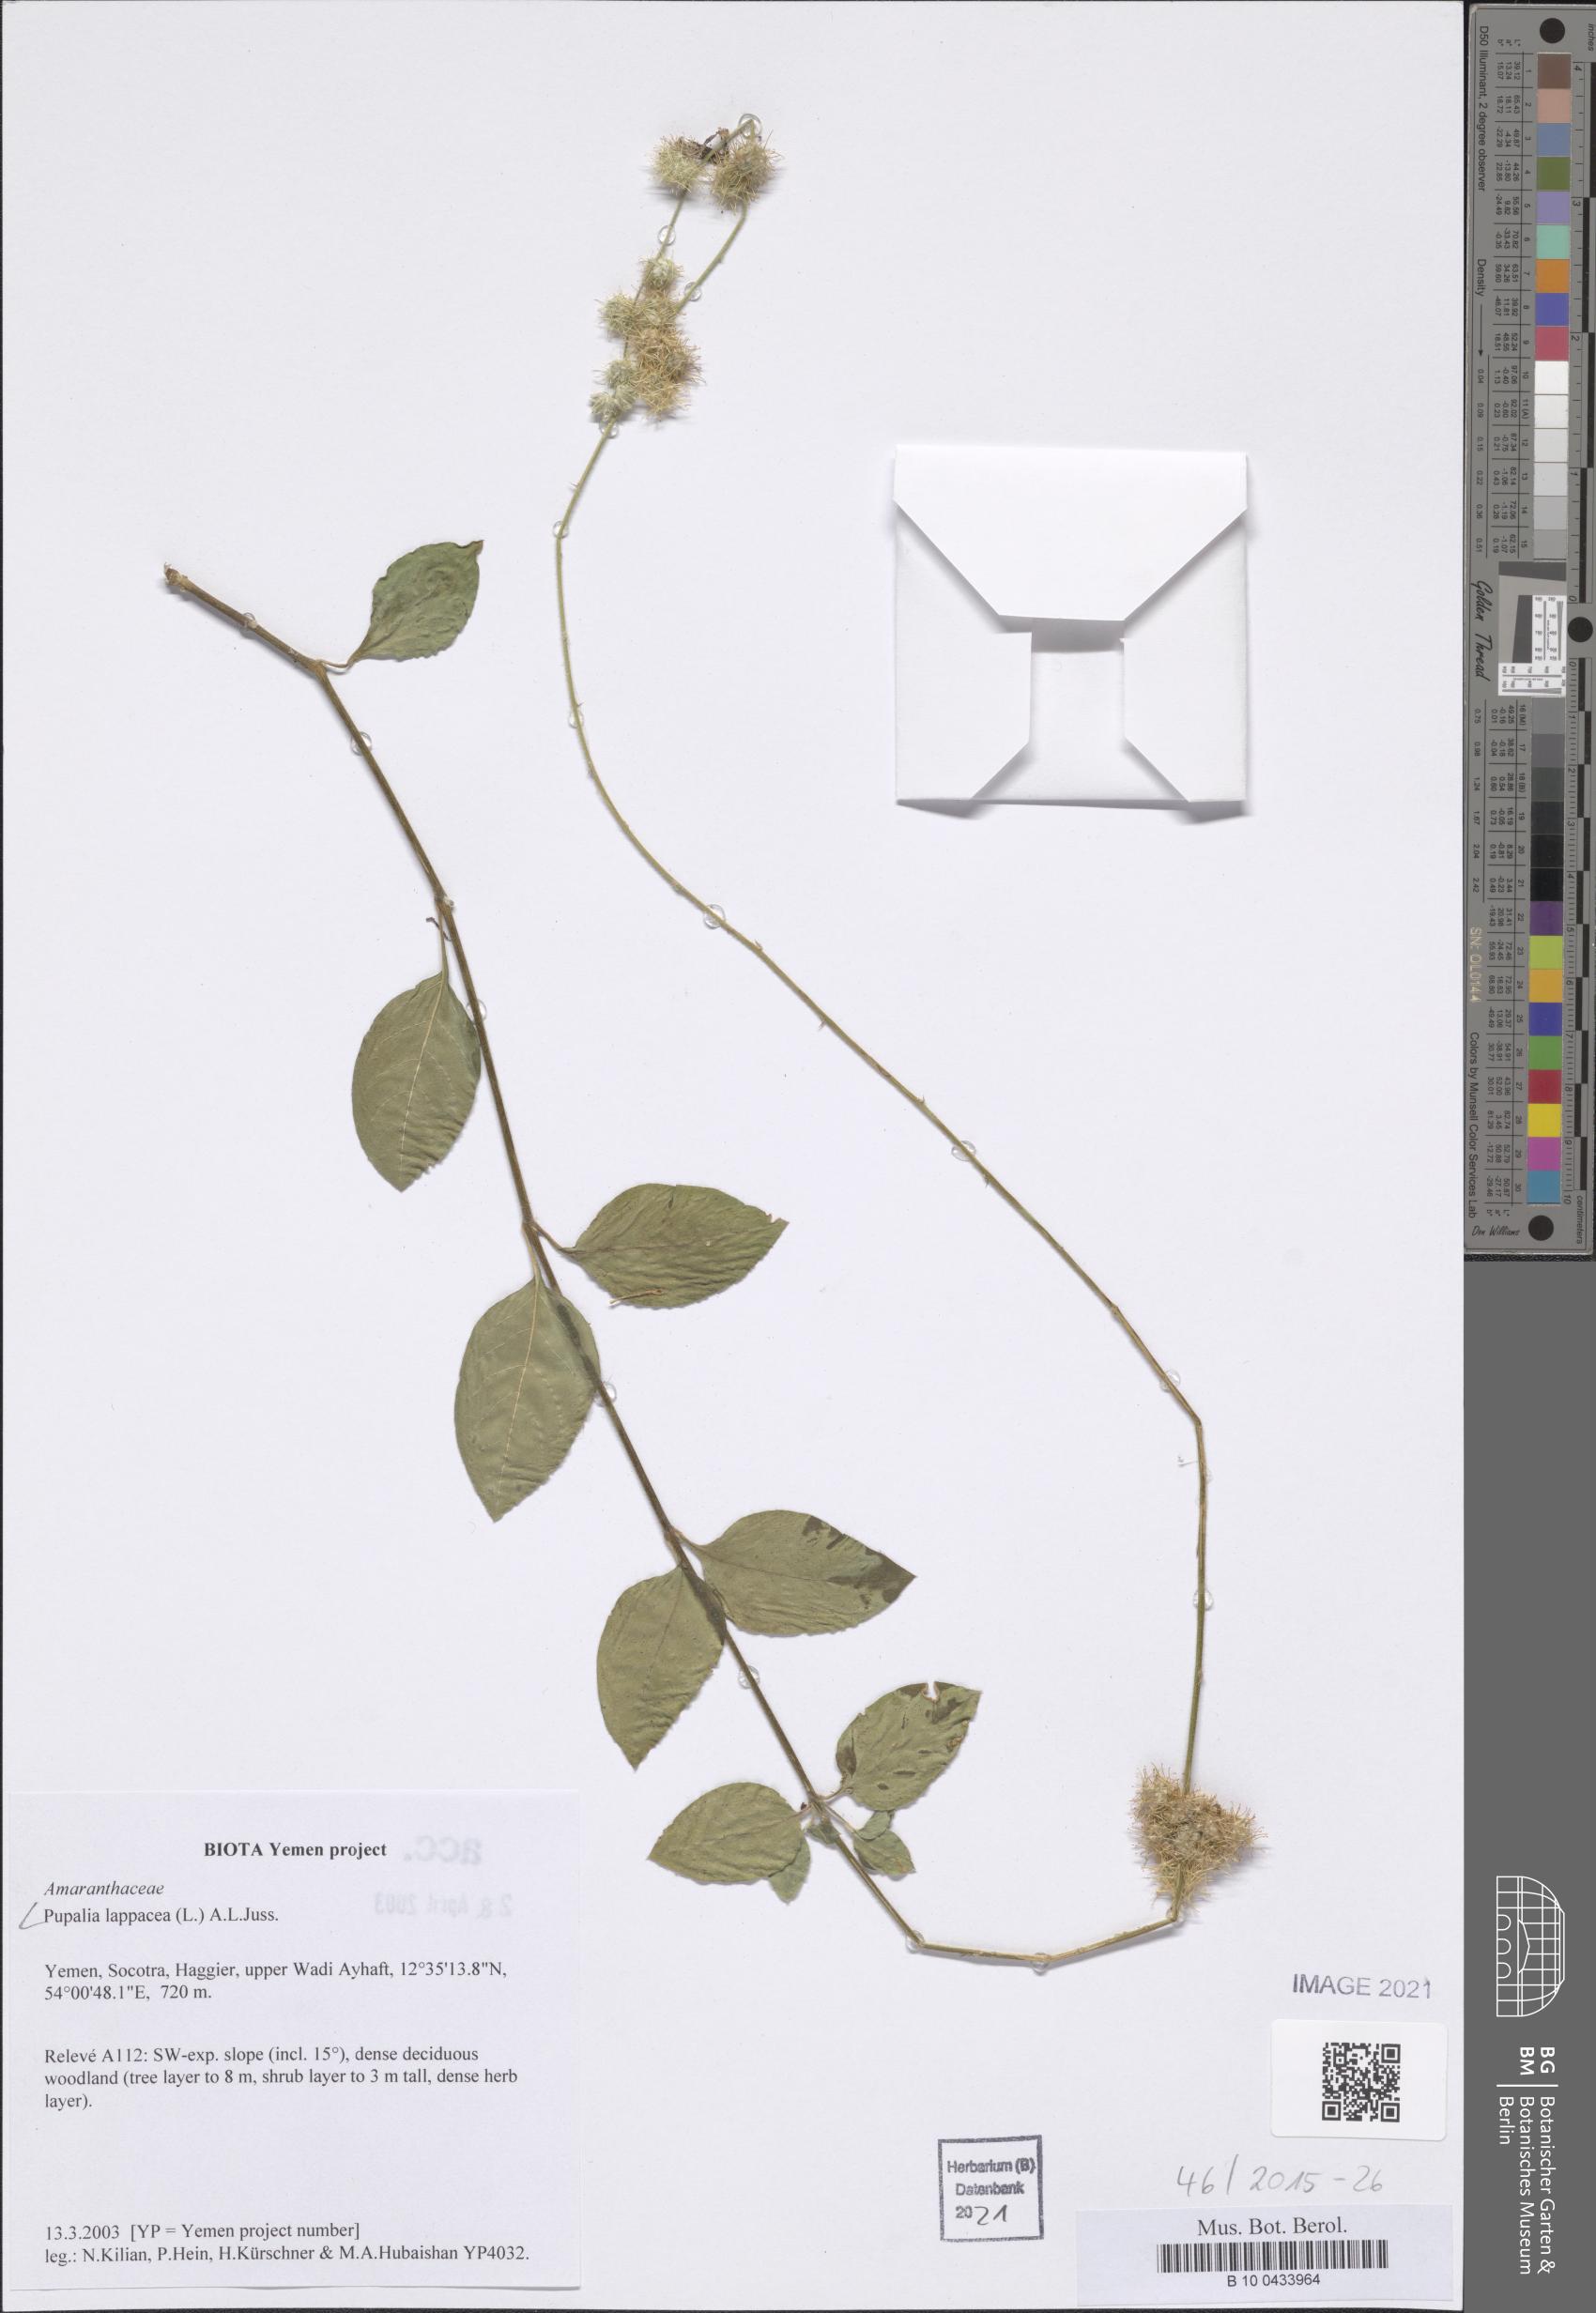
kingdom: Plantae
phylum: Tracheophyta
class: Magnoliopsida
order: Caryophyllales
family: Amaranthaceae
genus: Pupalia
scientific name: Pupalia lappacea
